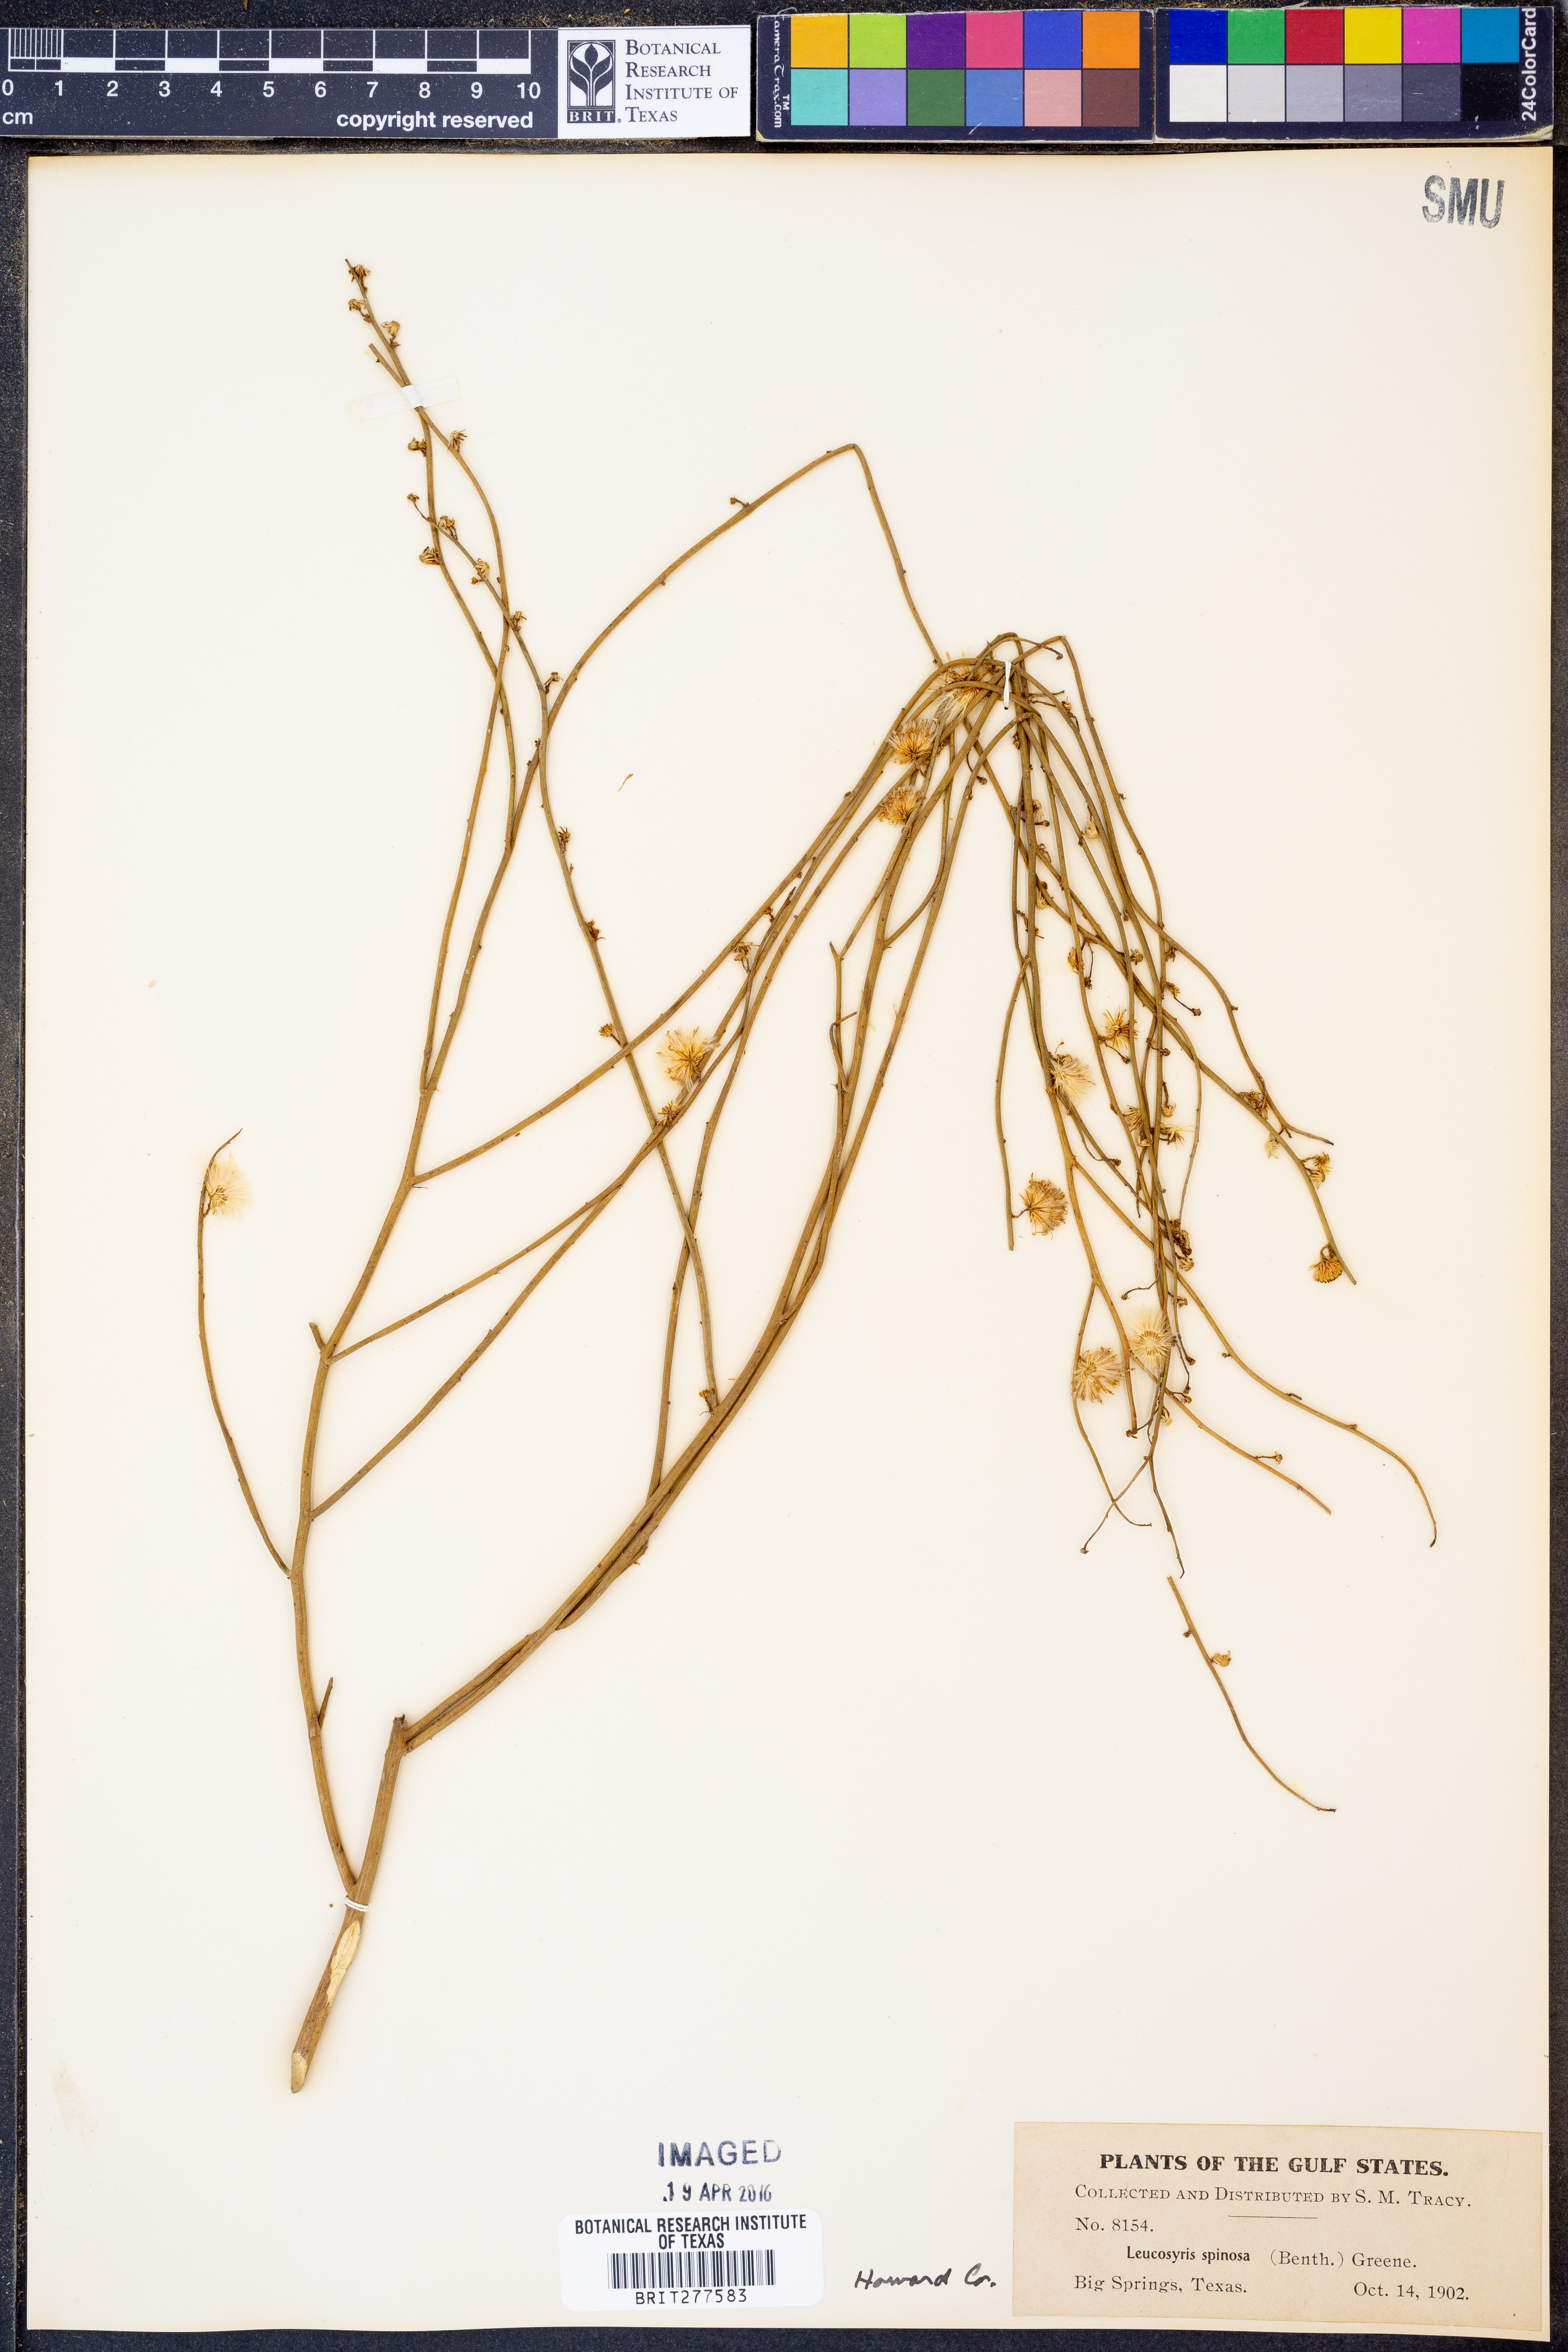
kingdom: Plantae
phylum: Tracheophyta
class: Magnoliopsida
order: Asterales
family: Asteraceae
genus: Chloracantha
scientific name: Chloracantha spinosa
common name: Mexican devilweed
